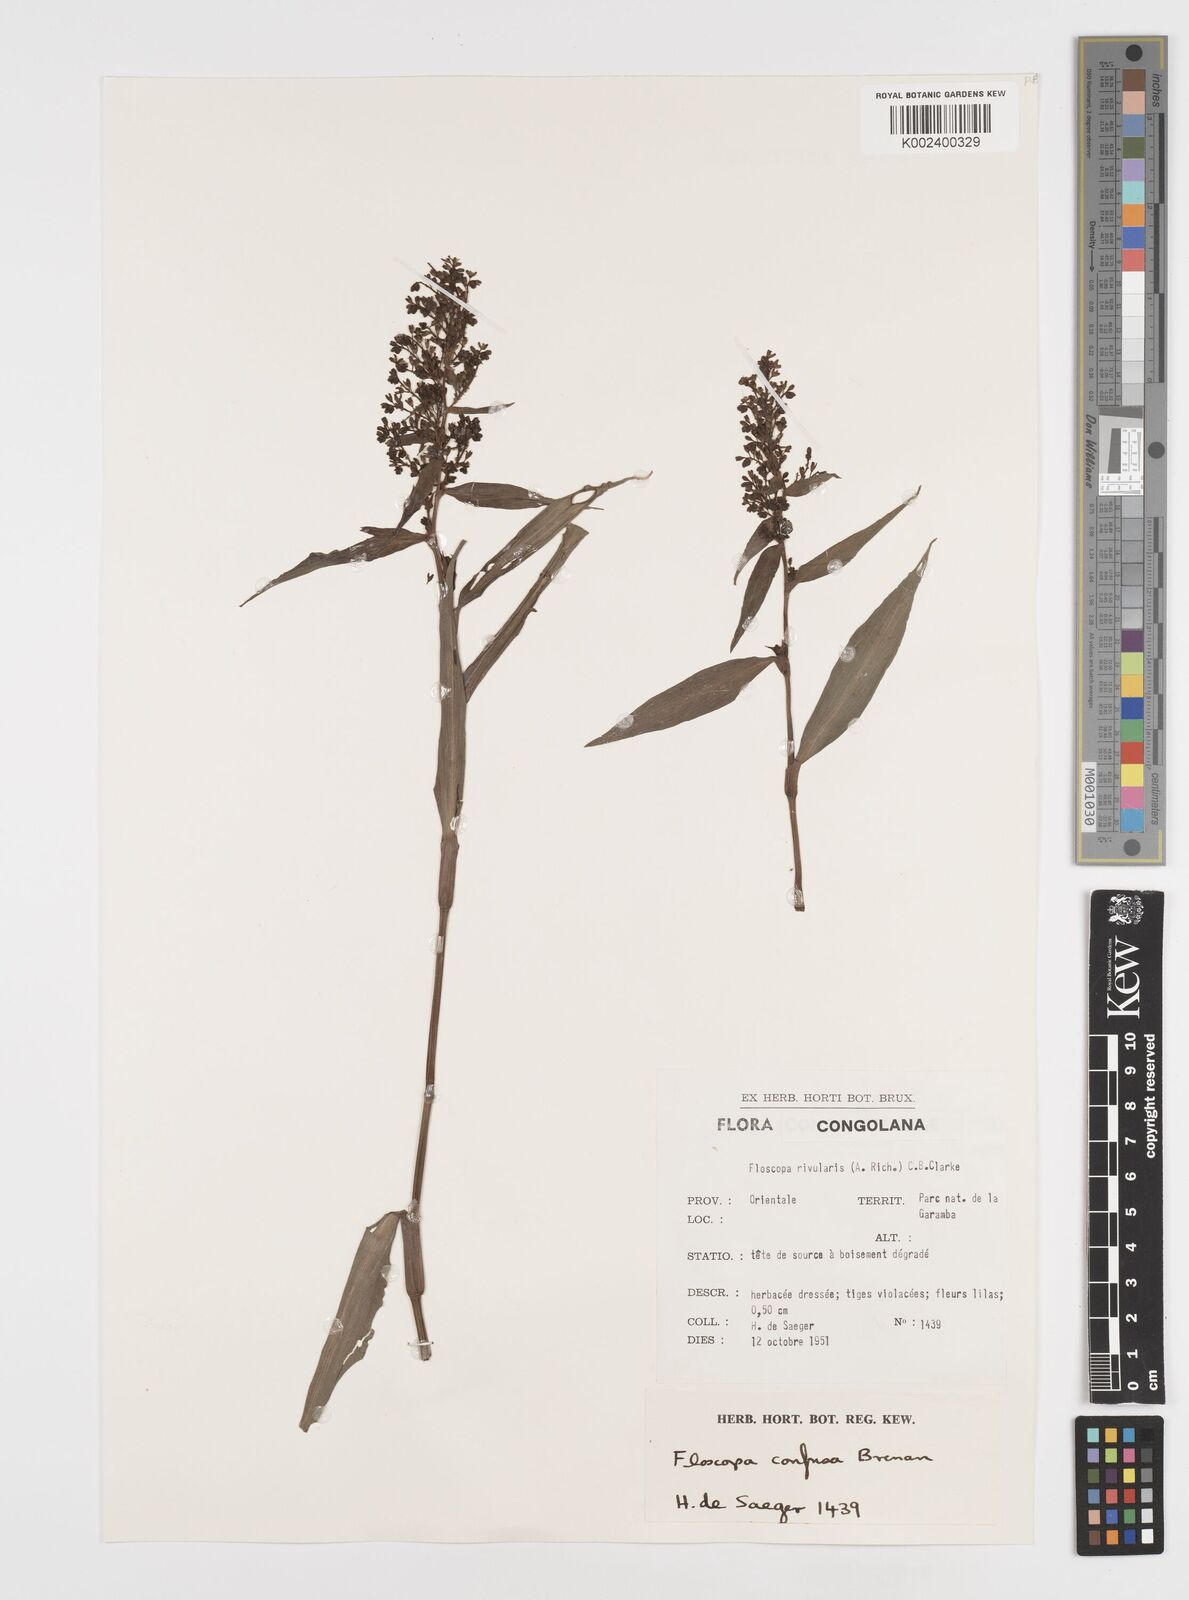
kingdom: Plantae
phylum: Tracheophyta
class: Liliopsida
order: Commelinales
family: Commelinaceae
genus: Floscopa
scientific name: Floscopa confusa
